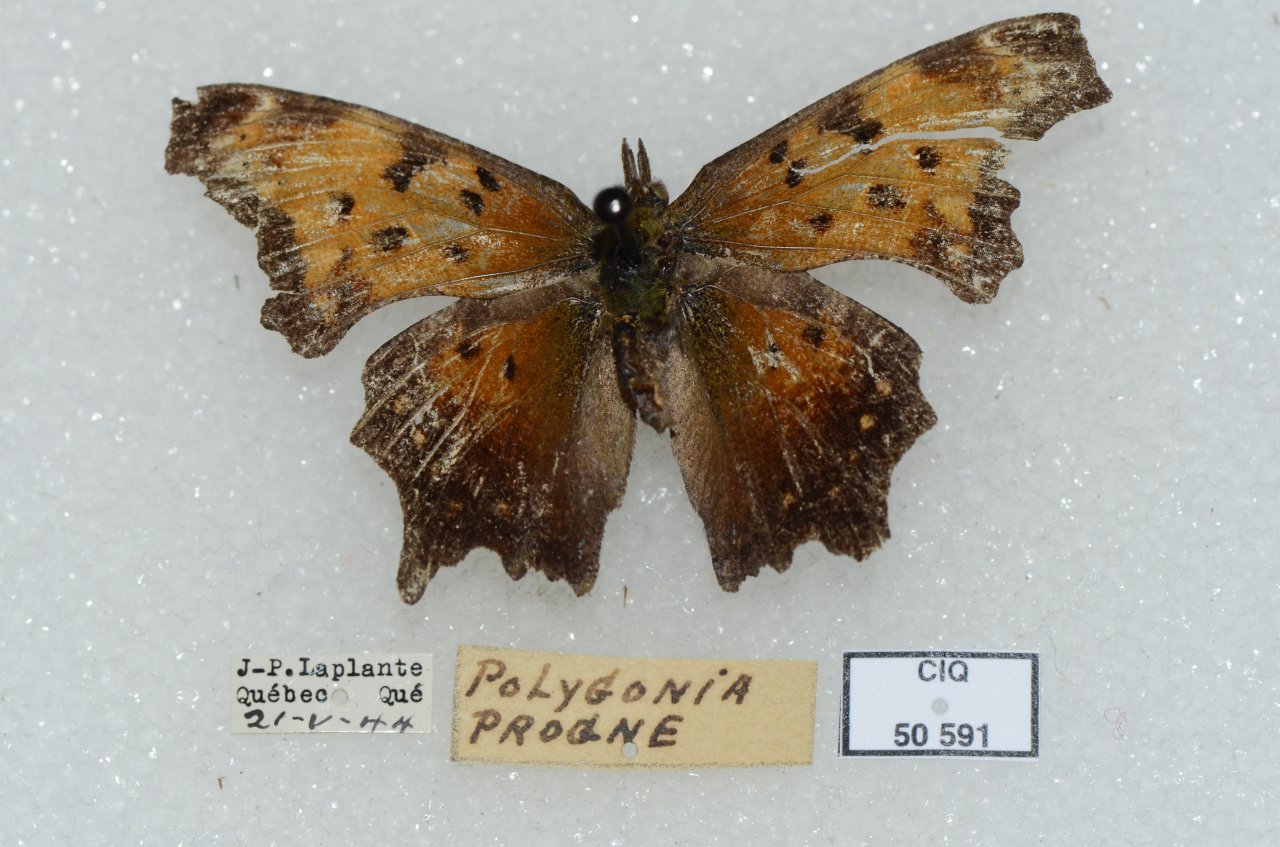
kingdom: Animalia
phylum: Arthropoda
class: Insecta
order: Lepidoptera
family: Nymphalidae
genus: Polygonia
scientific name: Polygonia progne
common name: Gray Comma
